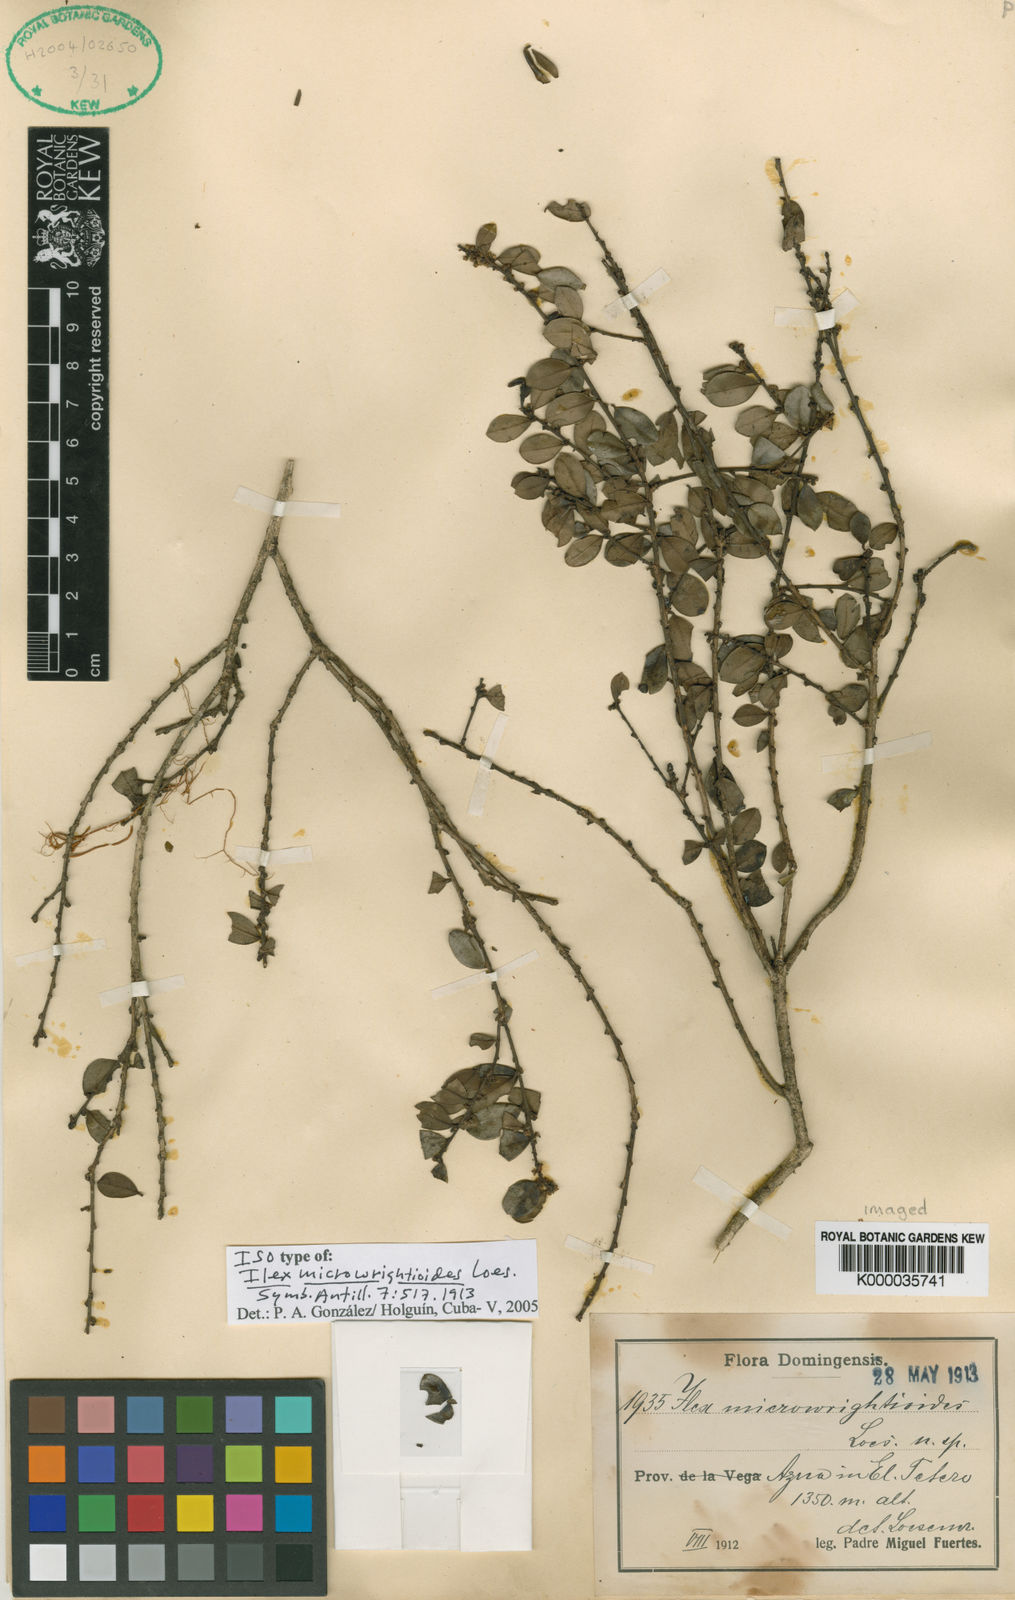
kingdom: Plantae
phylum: Tracheophyta
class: Magnoliopsida
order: Aquifoliales
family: Aquifoliaceae
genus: Ilex
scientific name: Ilex microwrightioides
